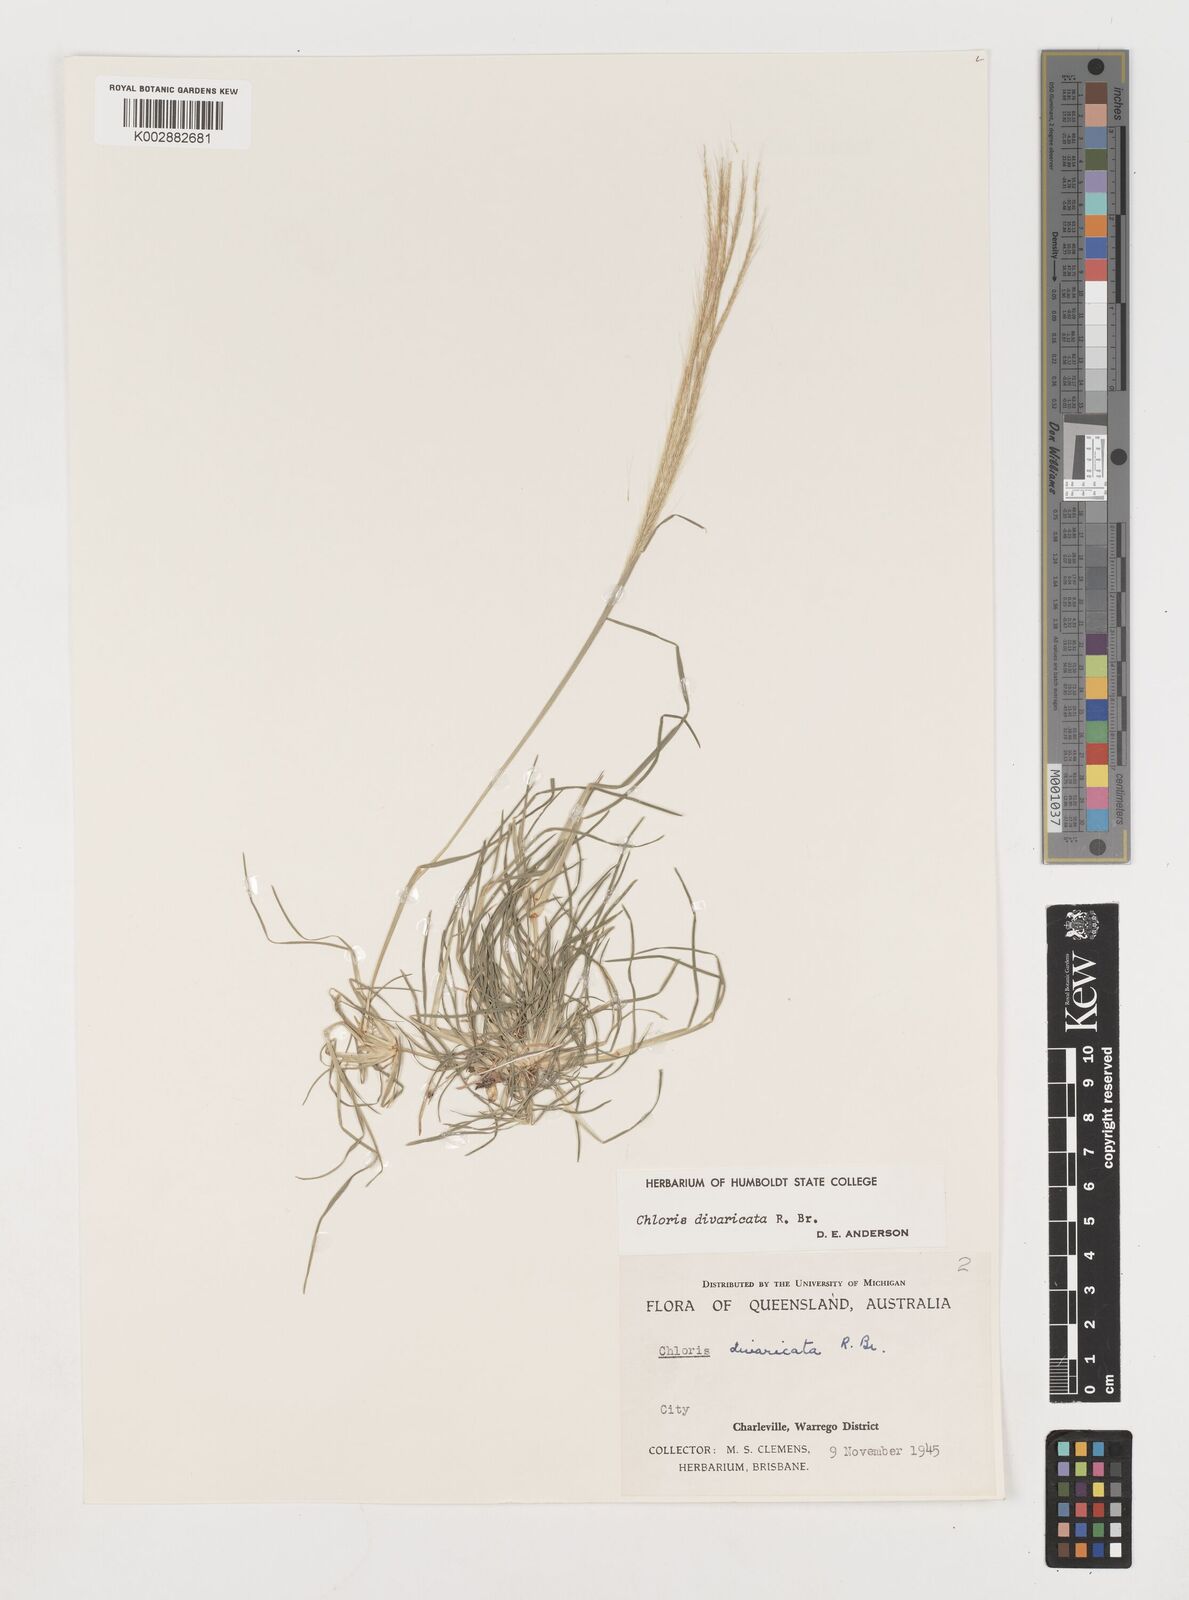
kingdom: Plantae
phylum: Tracheophyta
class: Liliopsida
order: Poales
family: Poaceae
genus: Chloris
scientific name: Chloris divaricata
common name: Spreading windmill grass
